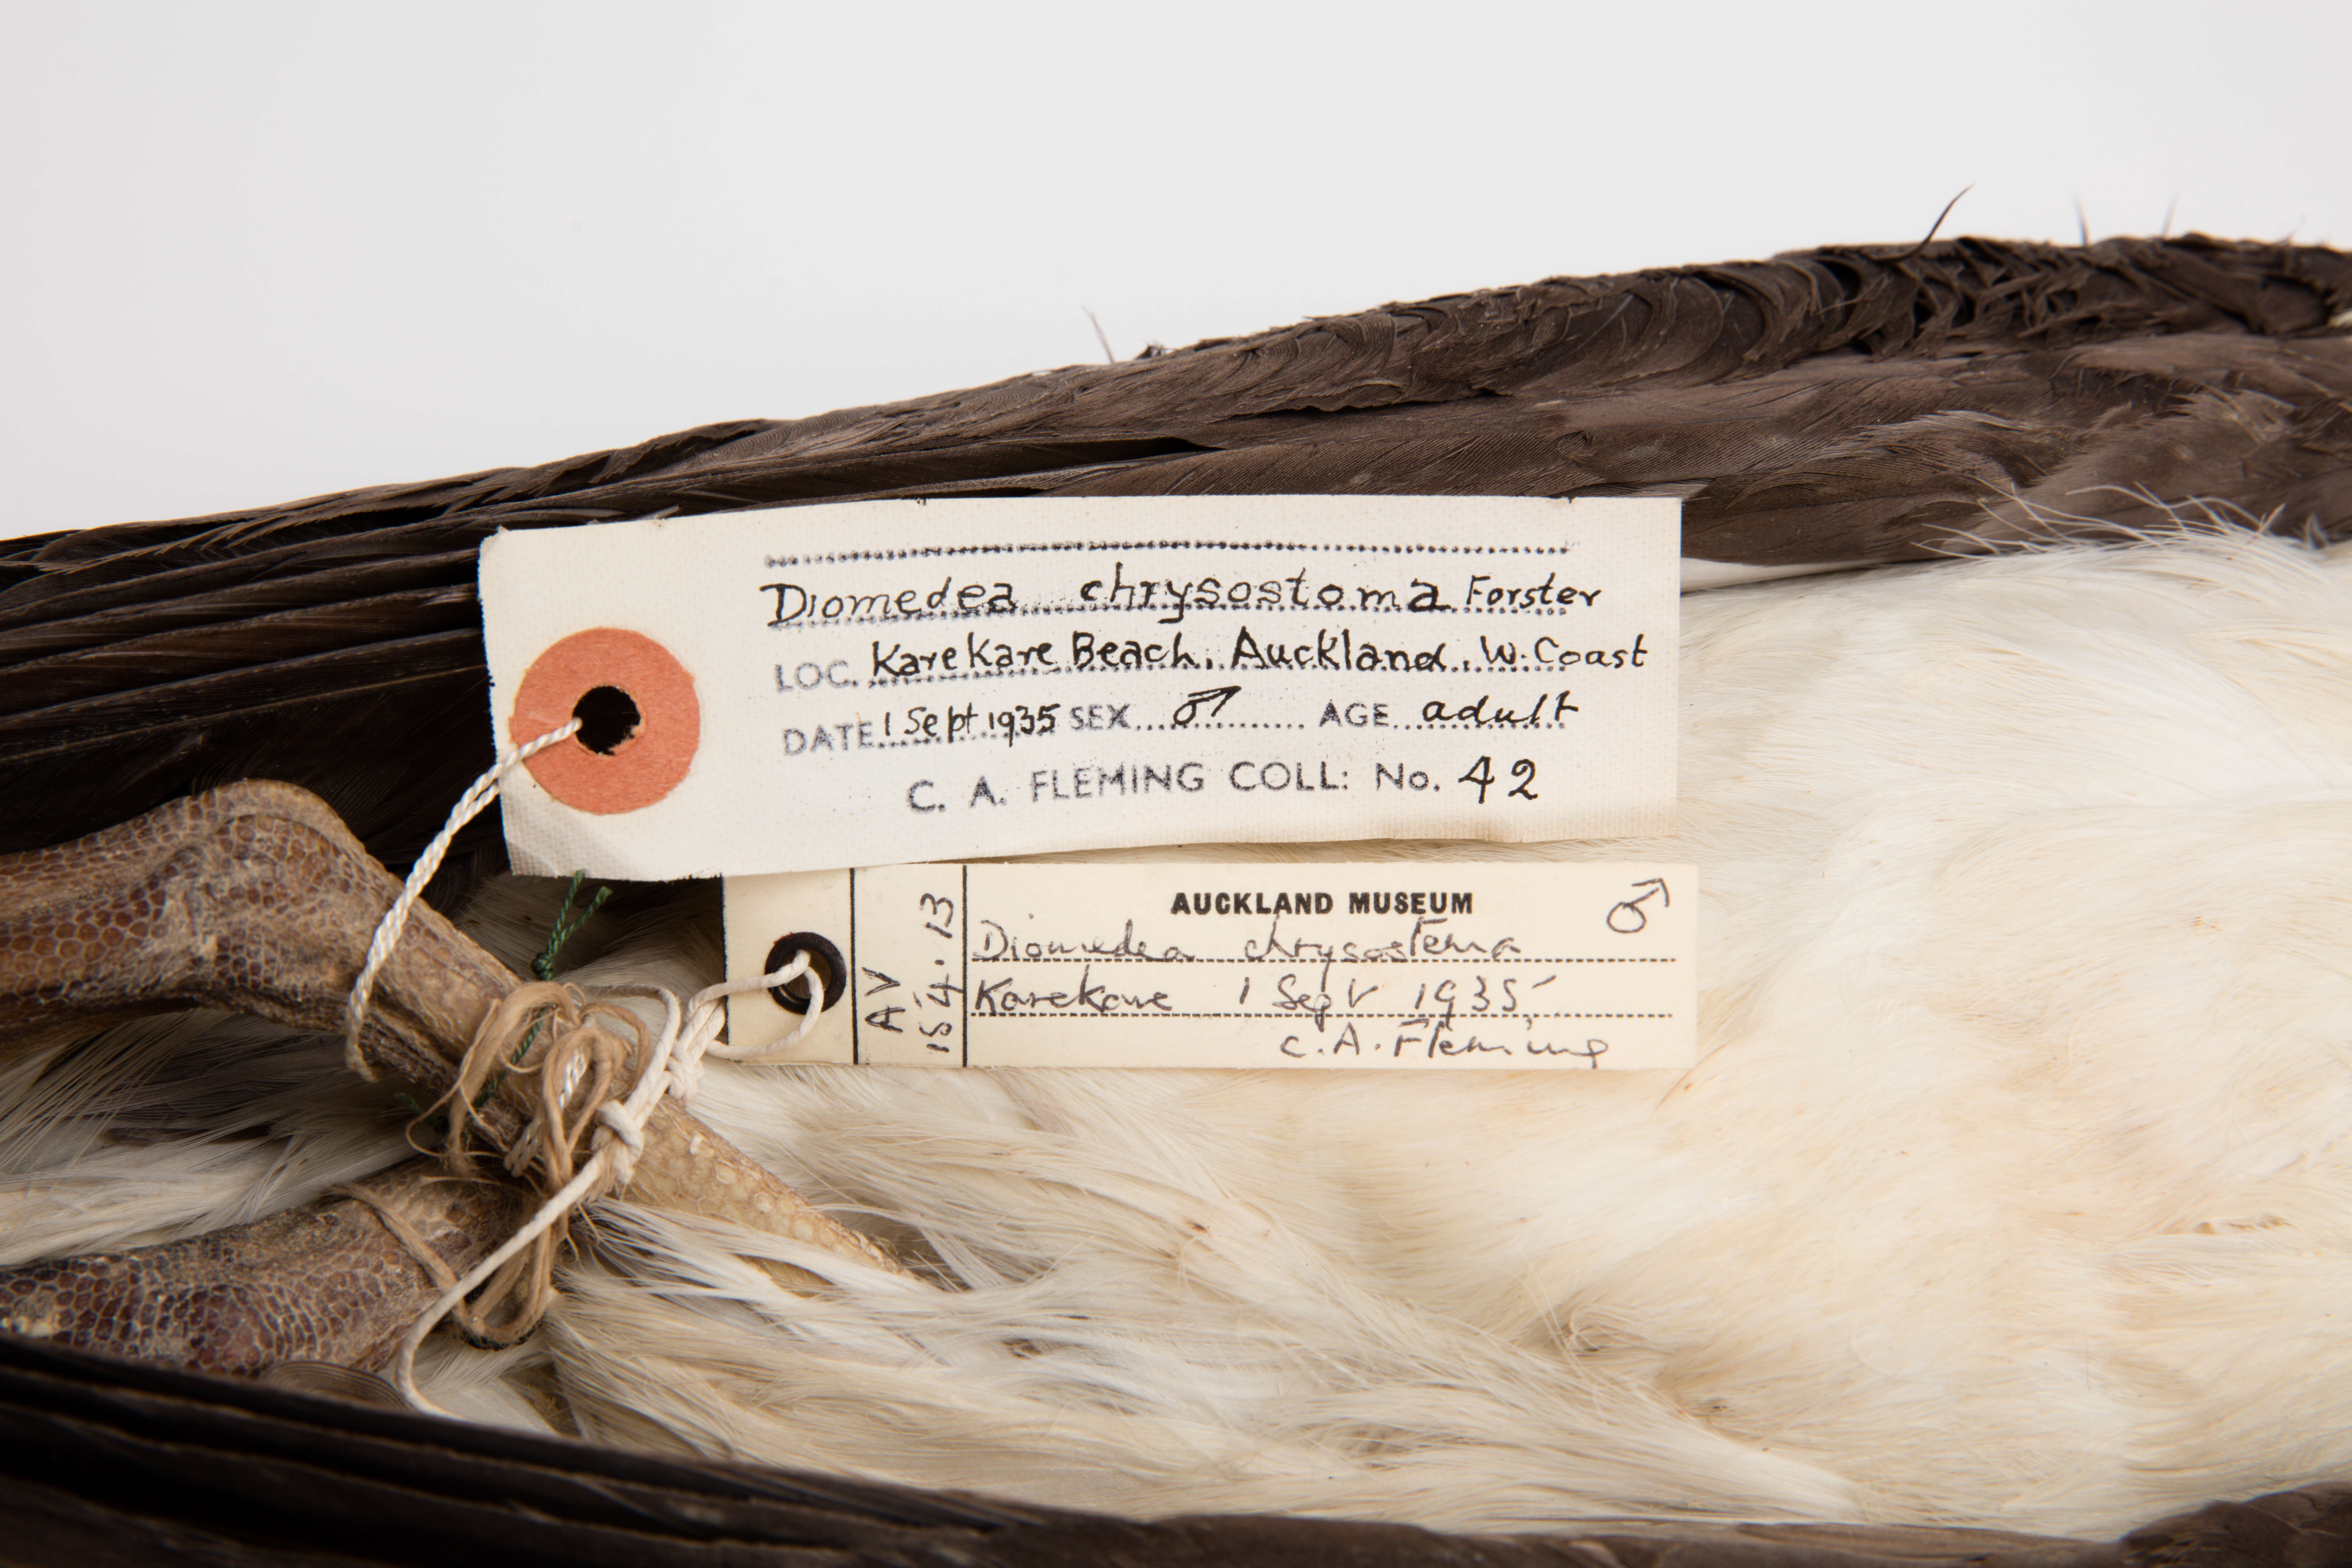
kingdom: Animalia
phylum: Chordata
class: Aves
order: Procellariiformes
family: Diomedeidae
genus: Thalassarche
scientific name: Thalassarche chrysostoma
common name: Grey-headed albatross
